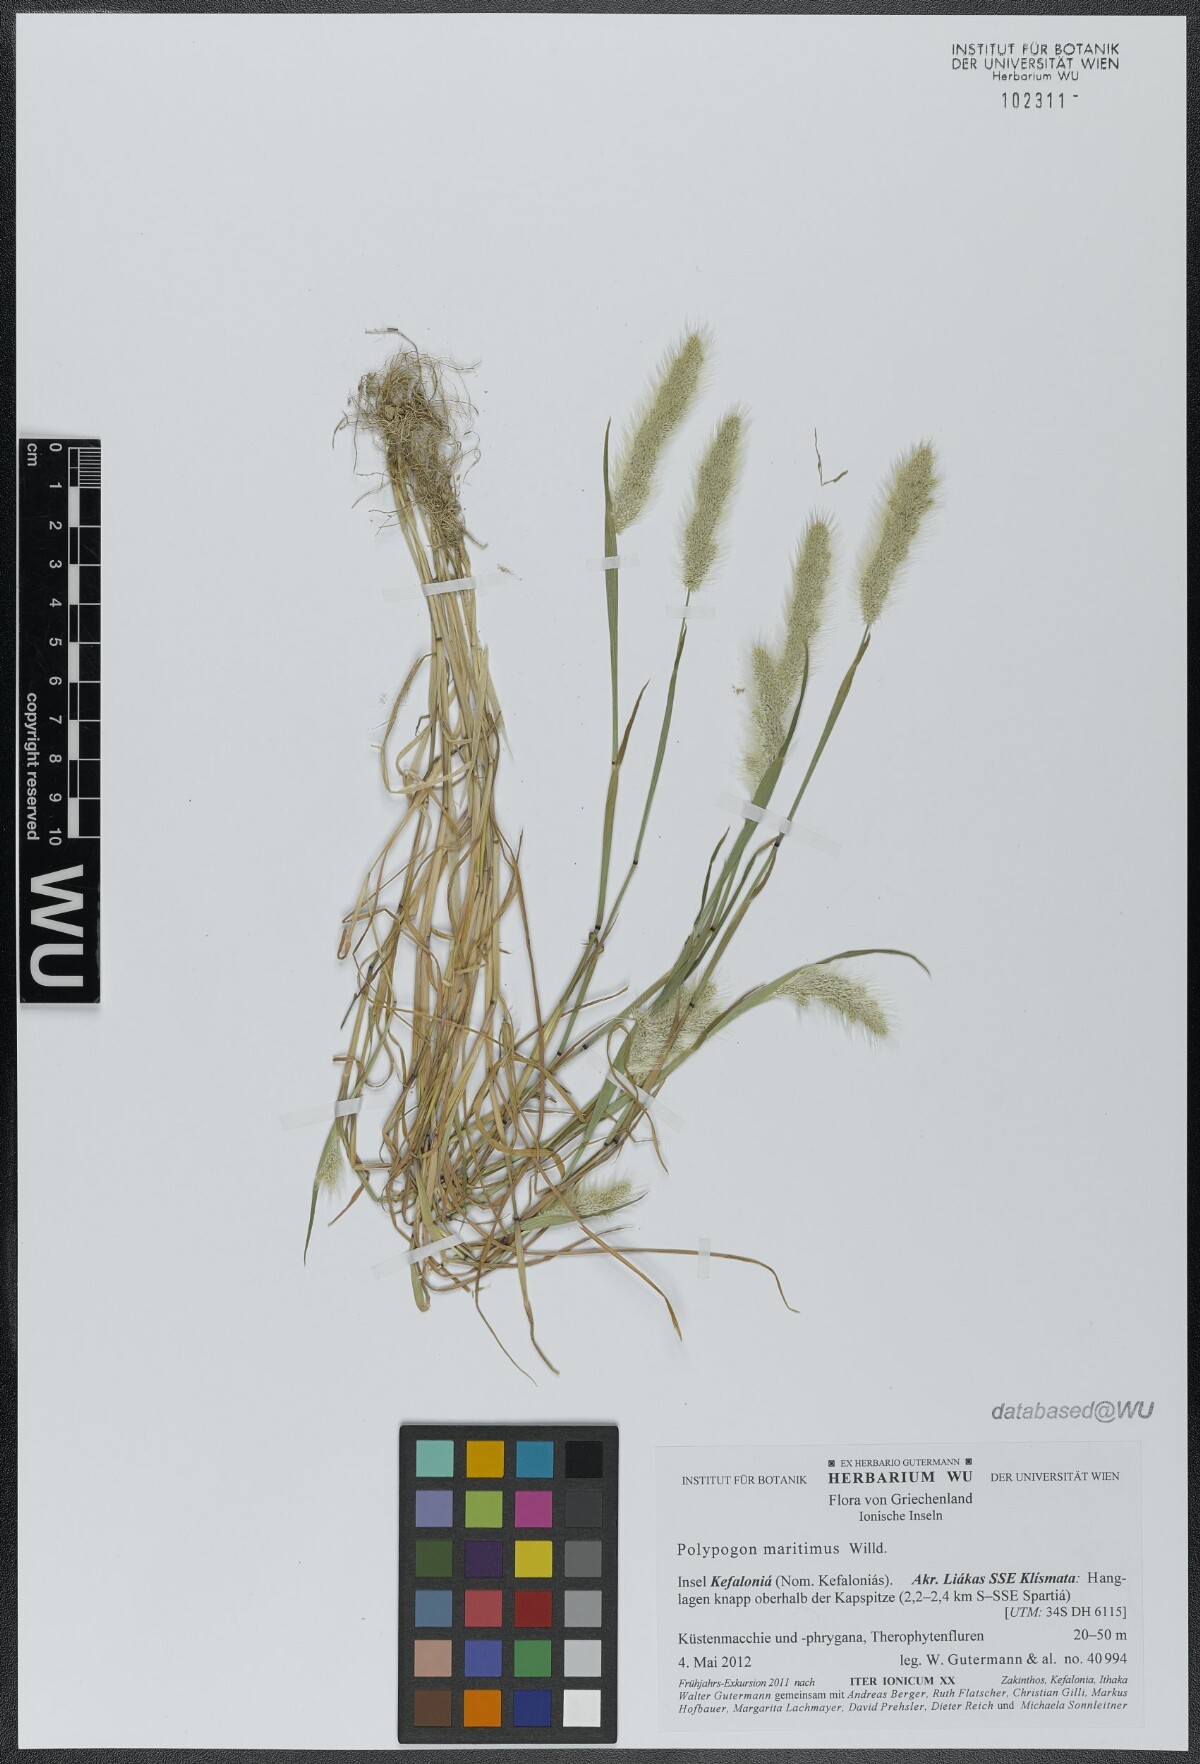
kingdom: Plantae
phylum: Tracheophyta
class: Liliopsida
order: Poales
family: Poaceae
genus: Polypogon
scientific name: Polypogon maritimus
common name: Mediterranean rabbitsfoot grass
